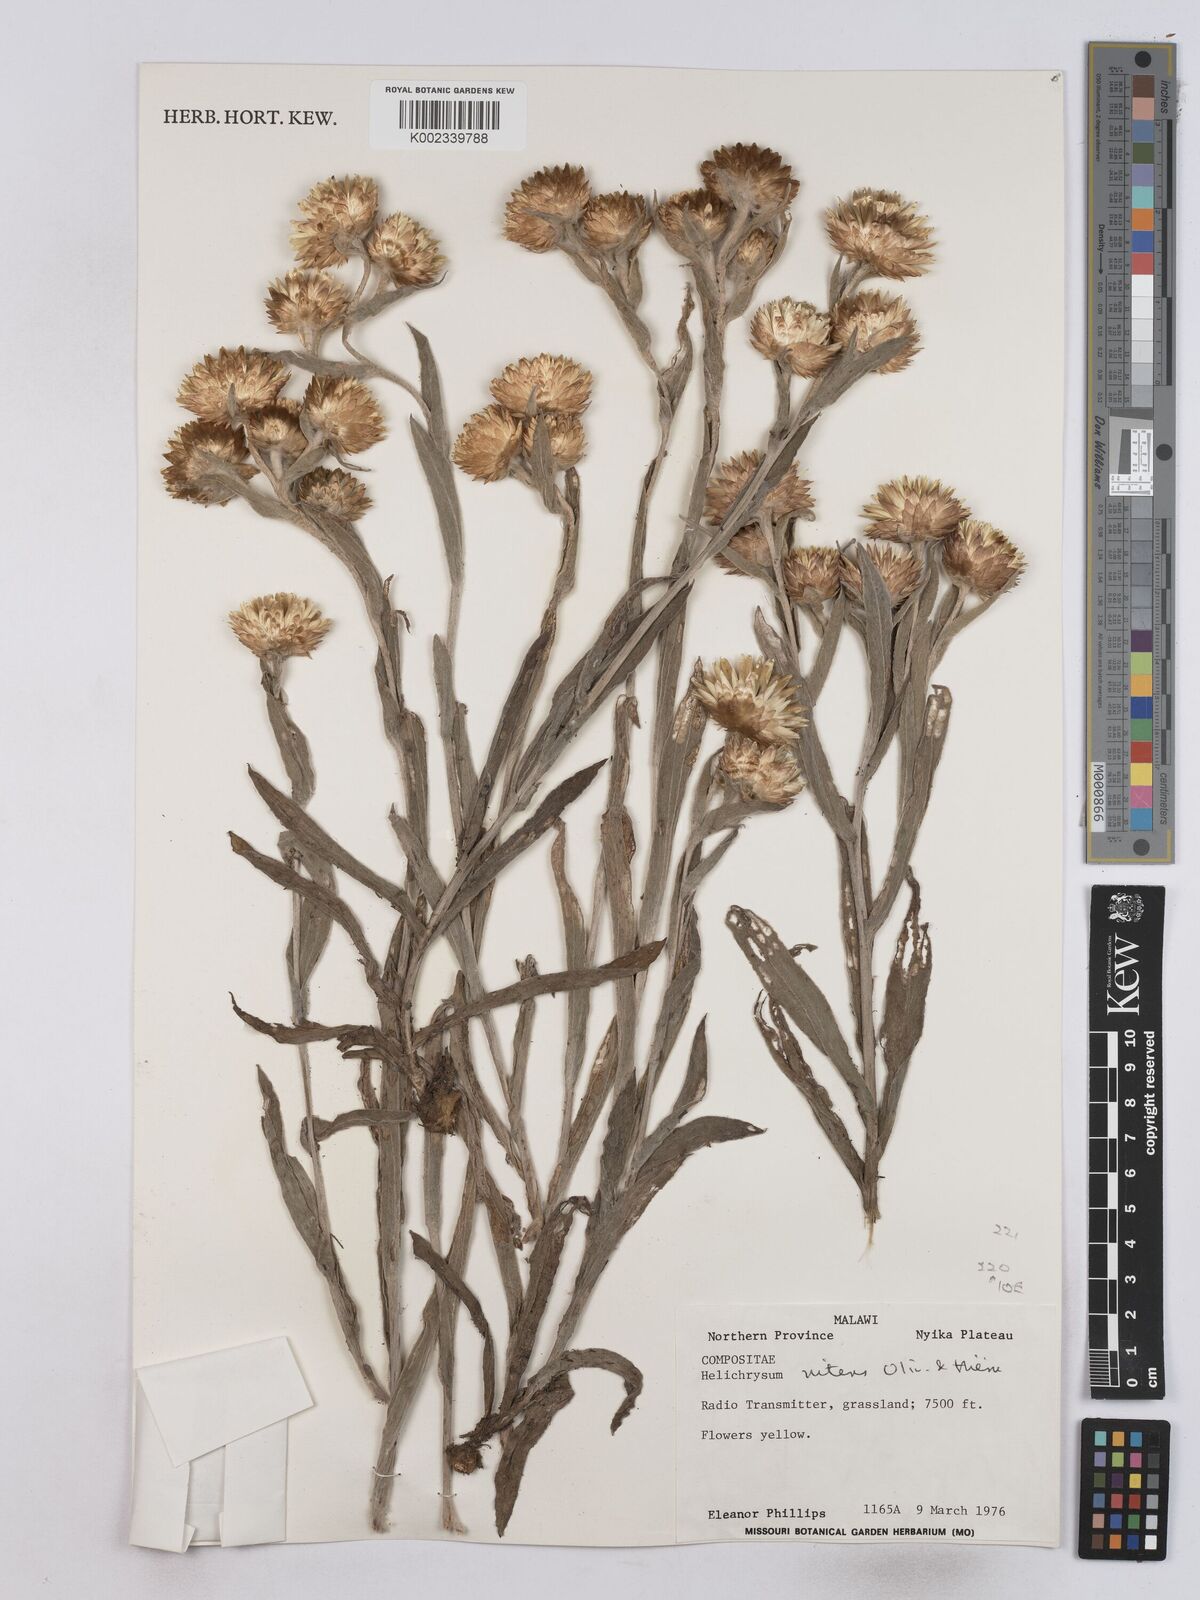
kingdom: Plantae
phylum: Tracheophyta
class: Magnoliopsida
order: Asterales
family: Asteraceae
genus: Helichrysum
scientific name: Helichrysum nitens
